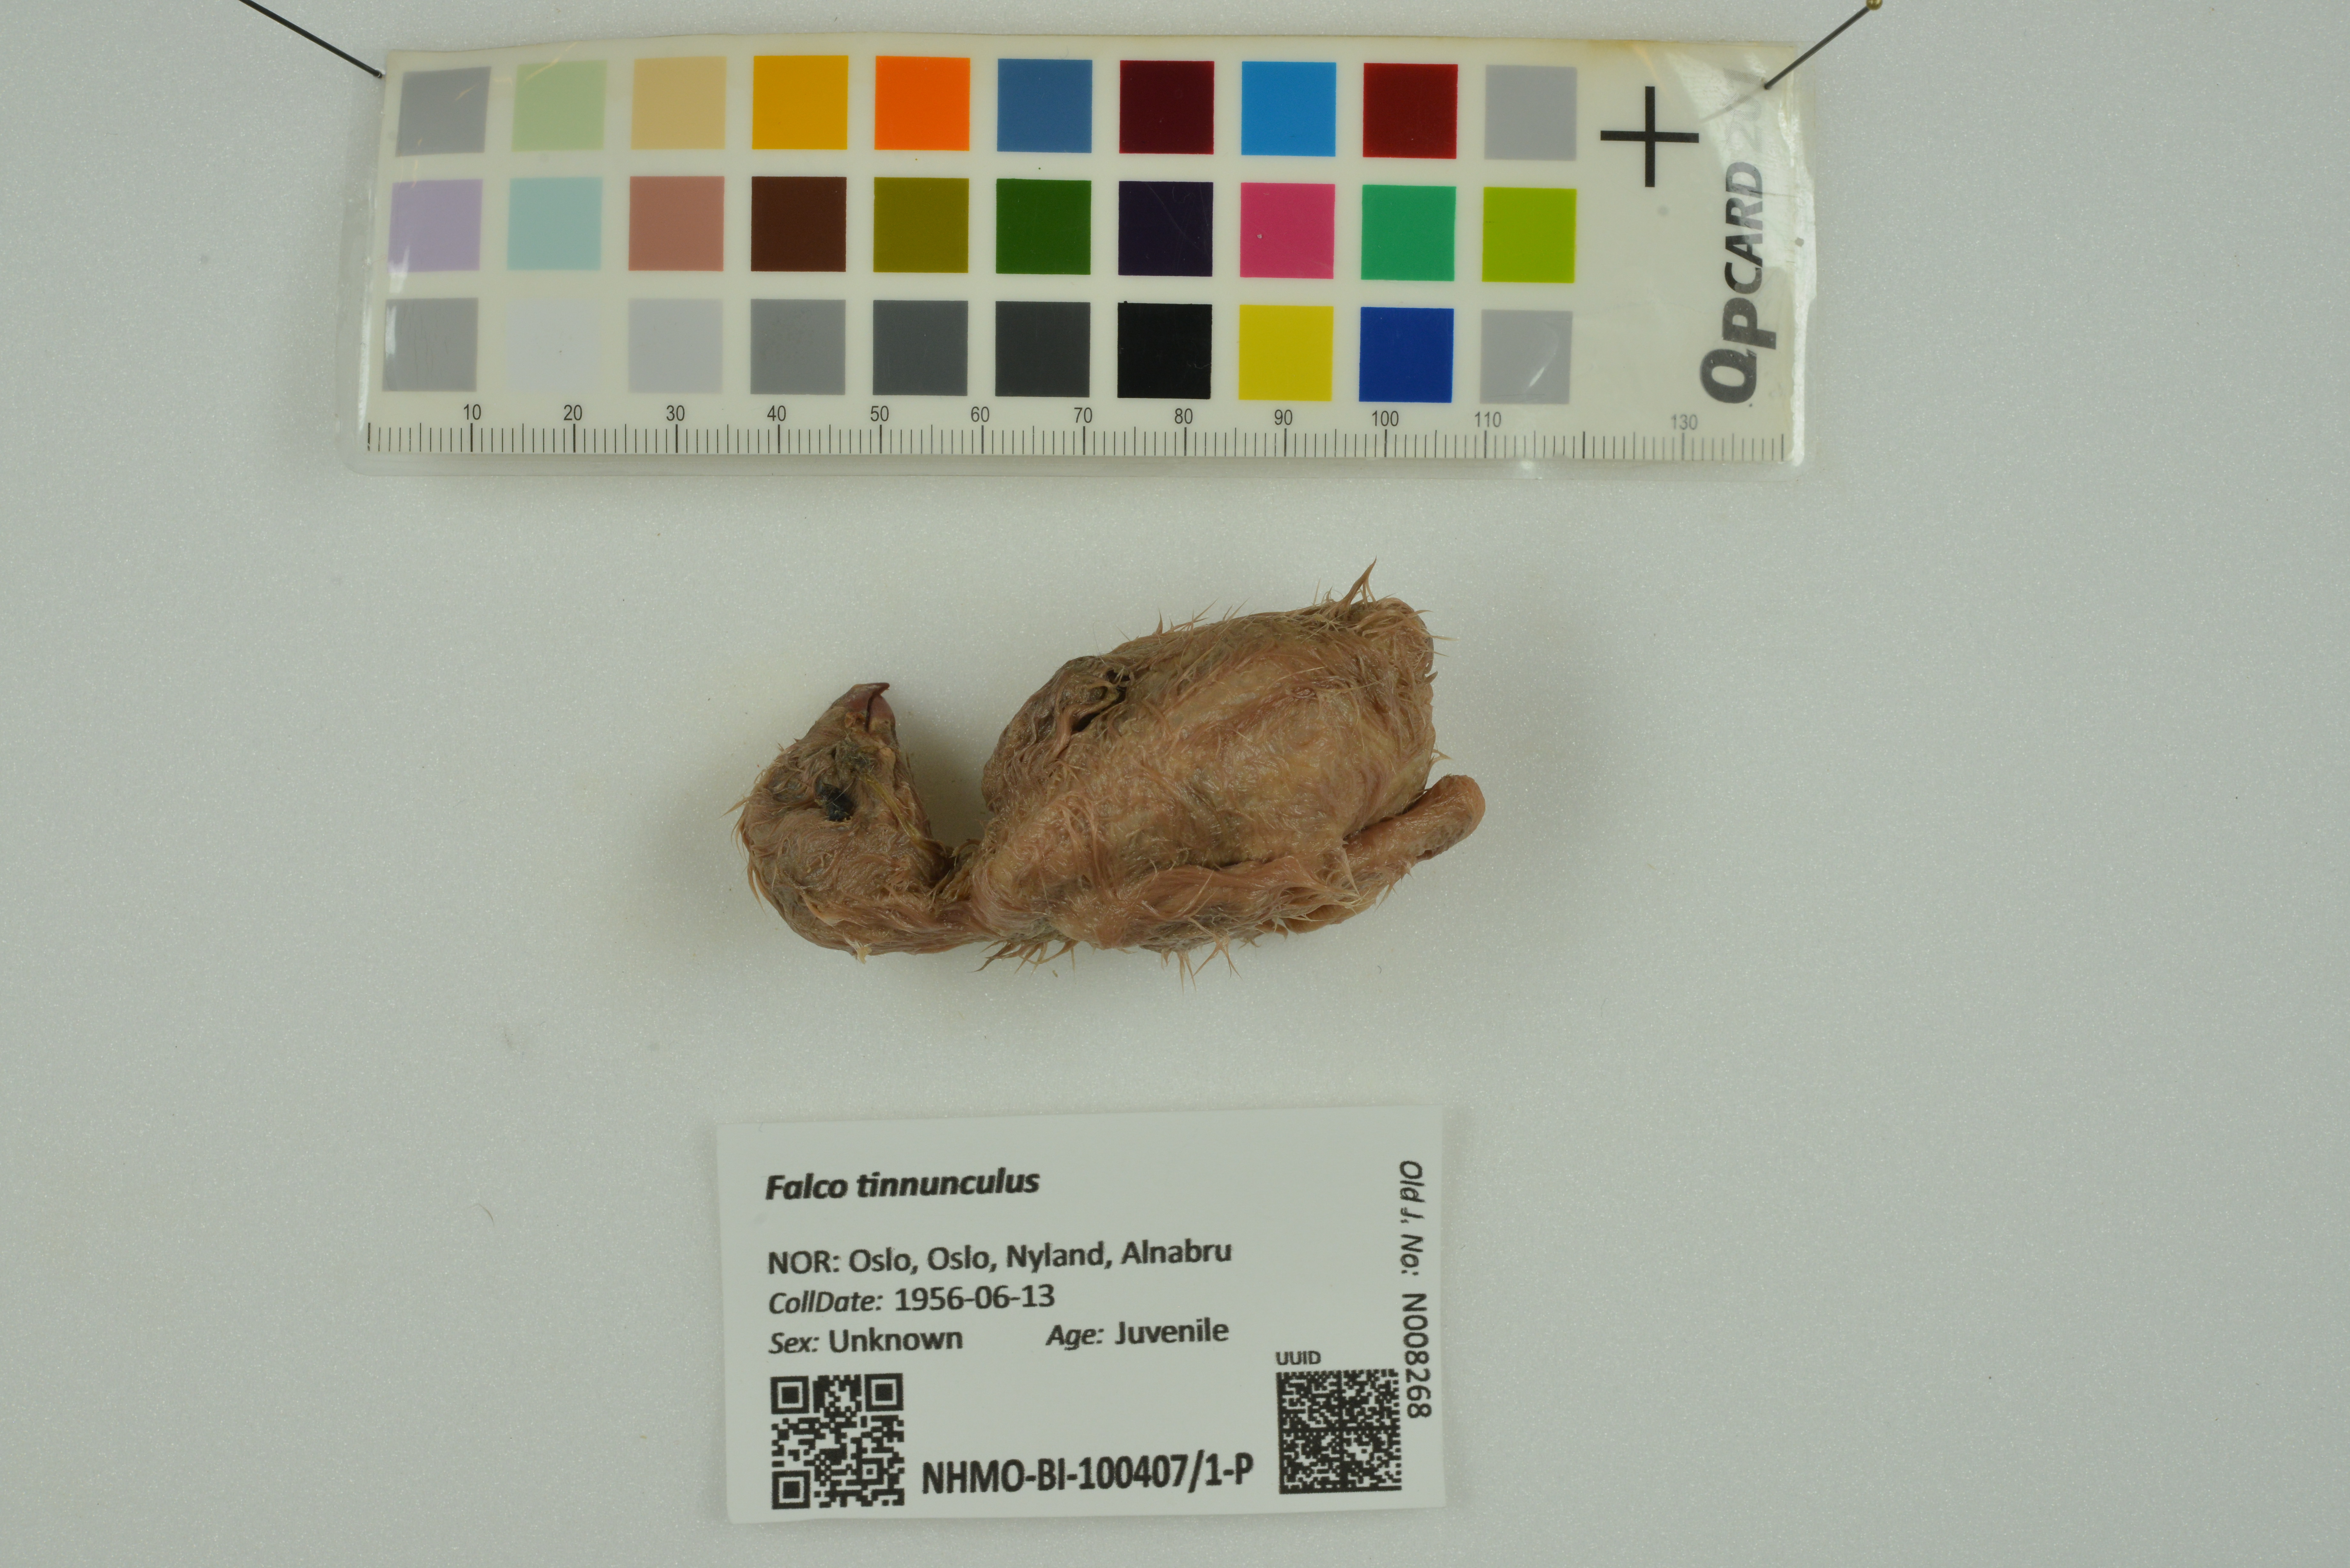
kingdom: Animalia
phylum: Chordata
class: Aves
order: Falconiformes
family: Falconidae
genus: Falco
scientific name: Falco tinnunculus
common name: Common kestrel
